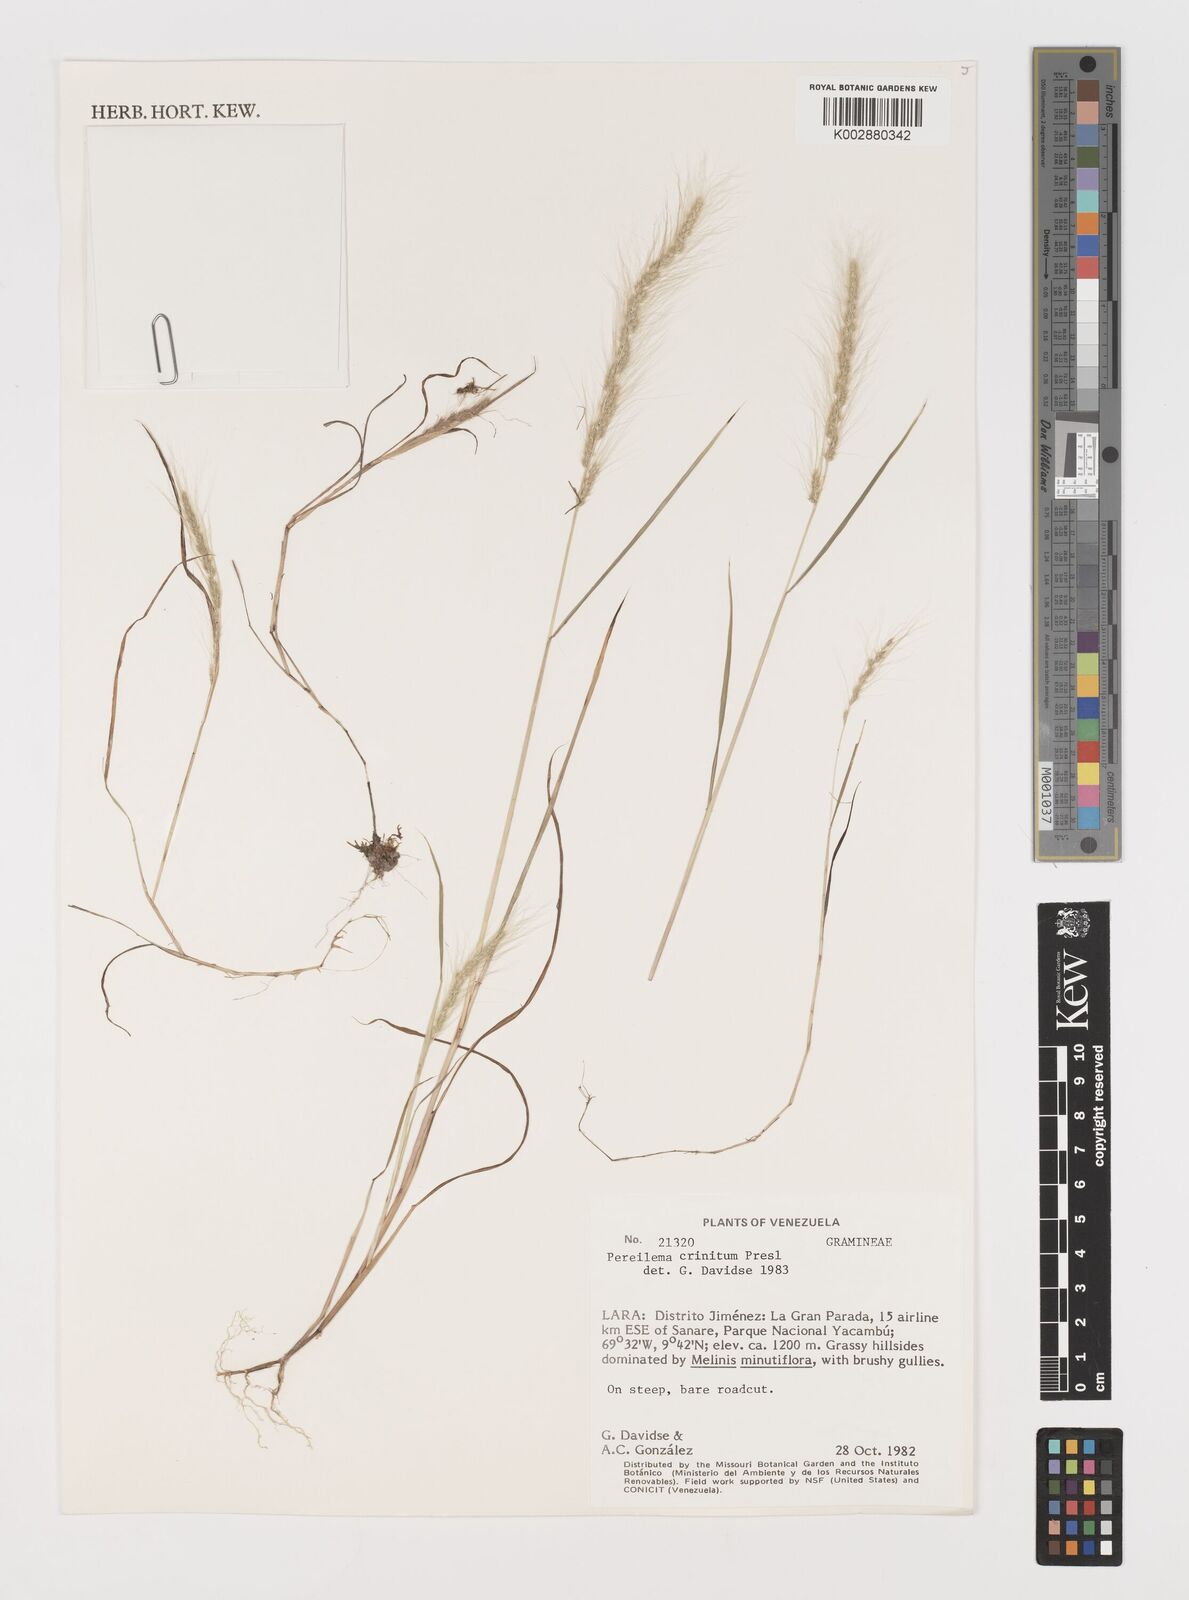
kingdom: Plantae
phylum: Tracheophyta
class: Liliopsida
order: Poales
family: Poaceae
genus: Muhlenbergia
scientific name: Muhlenbergia pereilema
